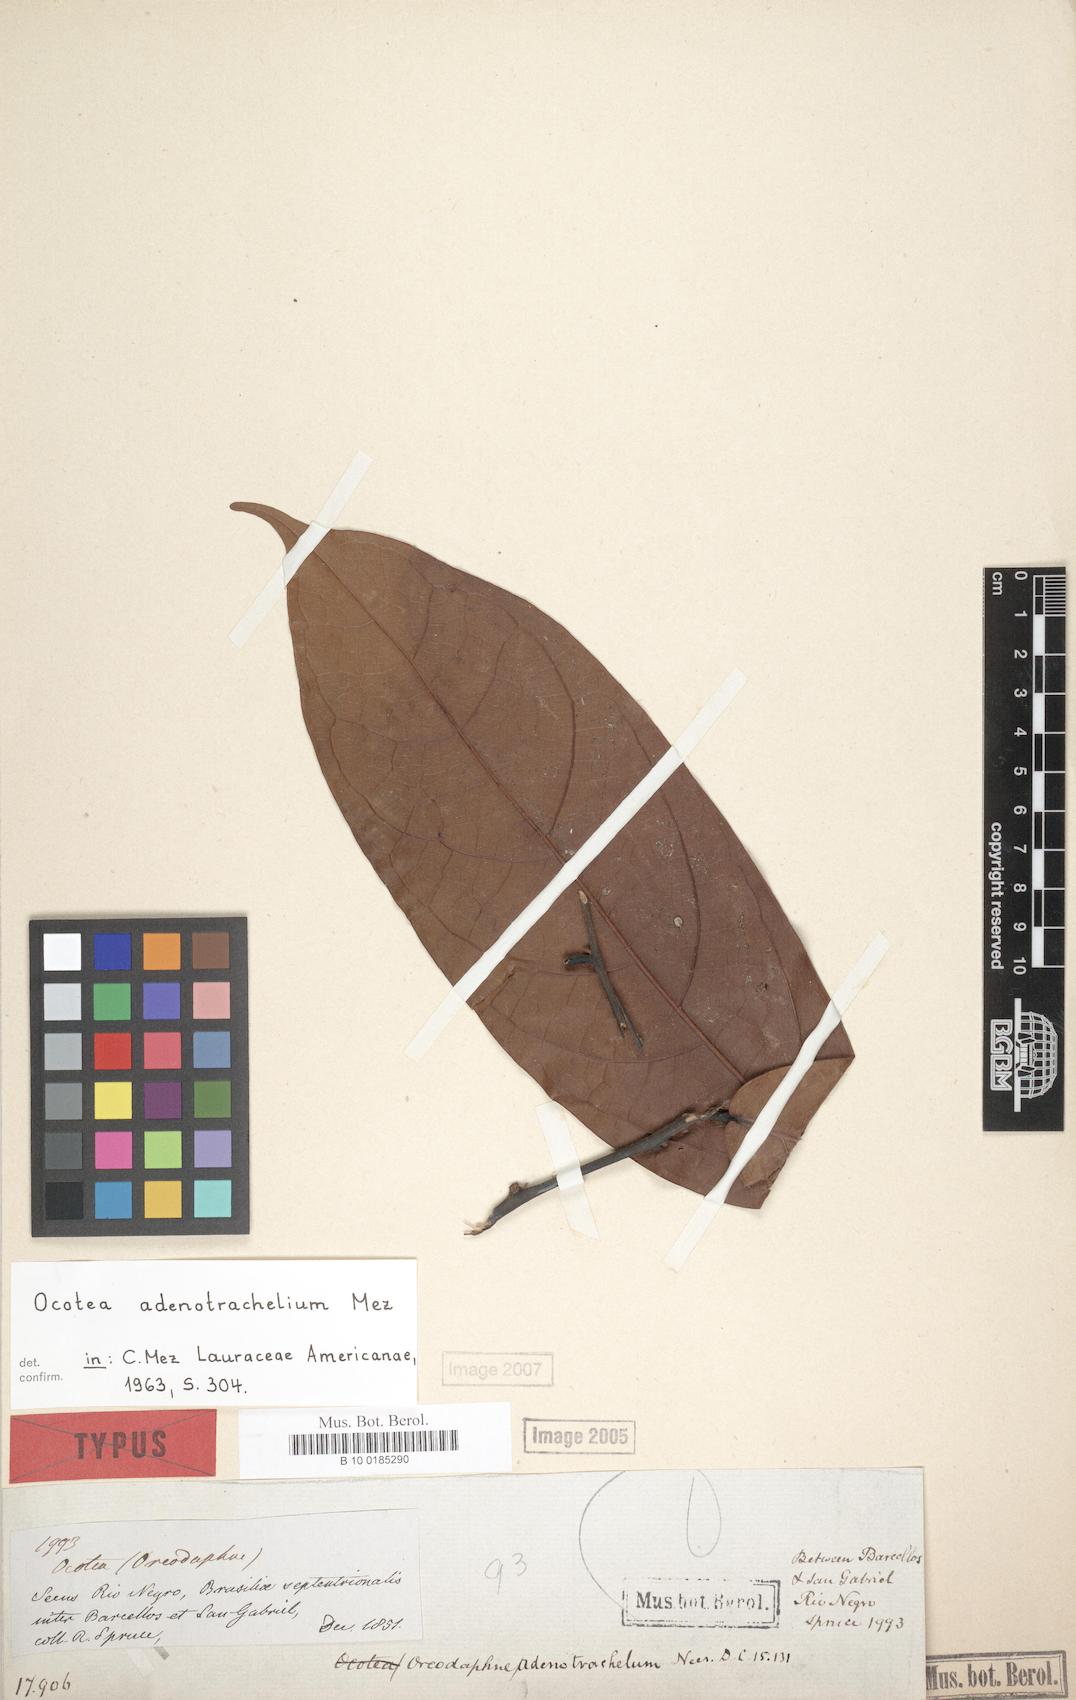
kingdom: Plantae
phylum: Tracheophyta
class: Magnoliopsida
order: Laurales
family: Lauraceae
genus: Ocotea
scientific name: Ocotea adenotrachelium
